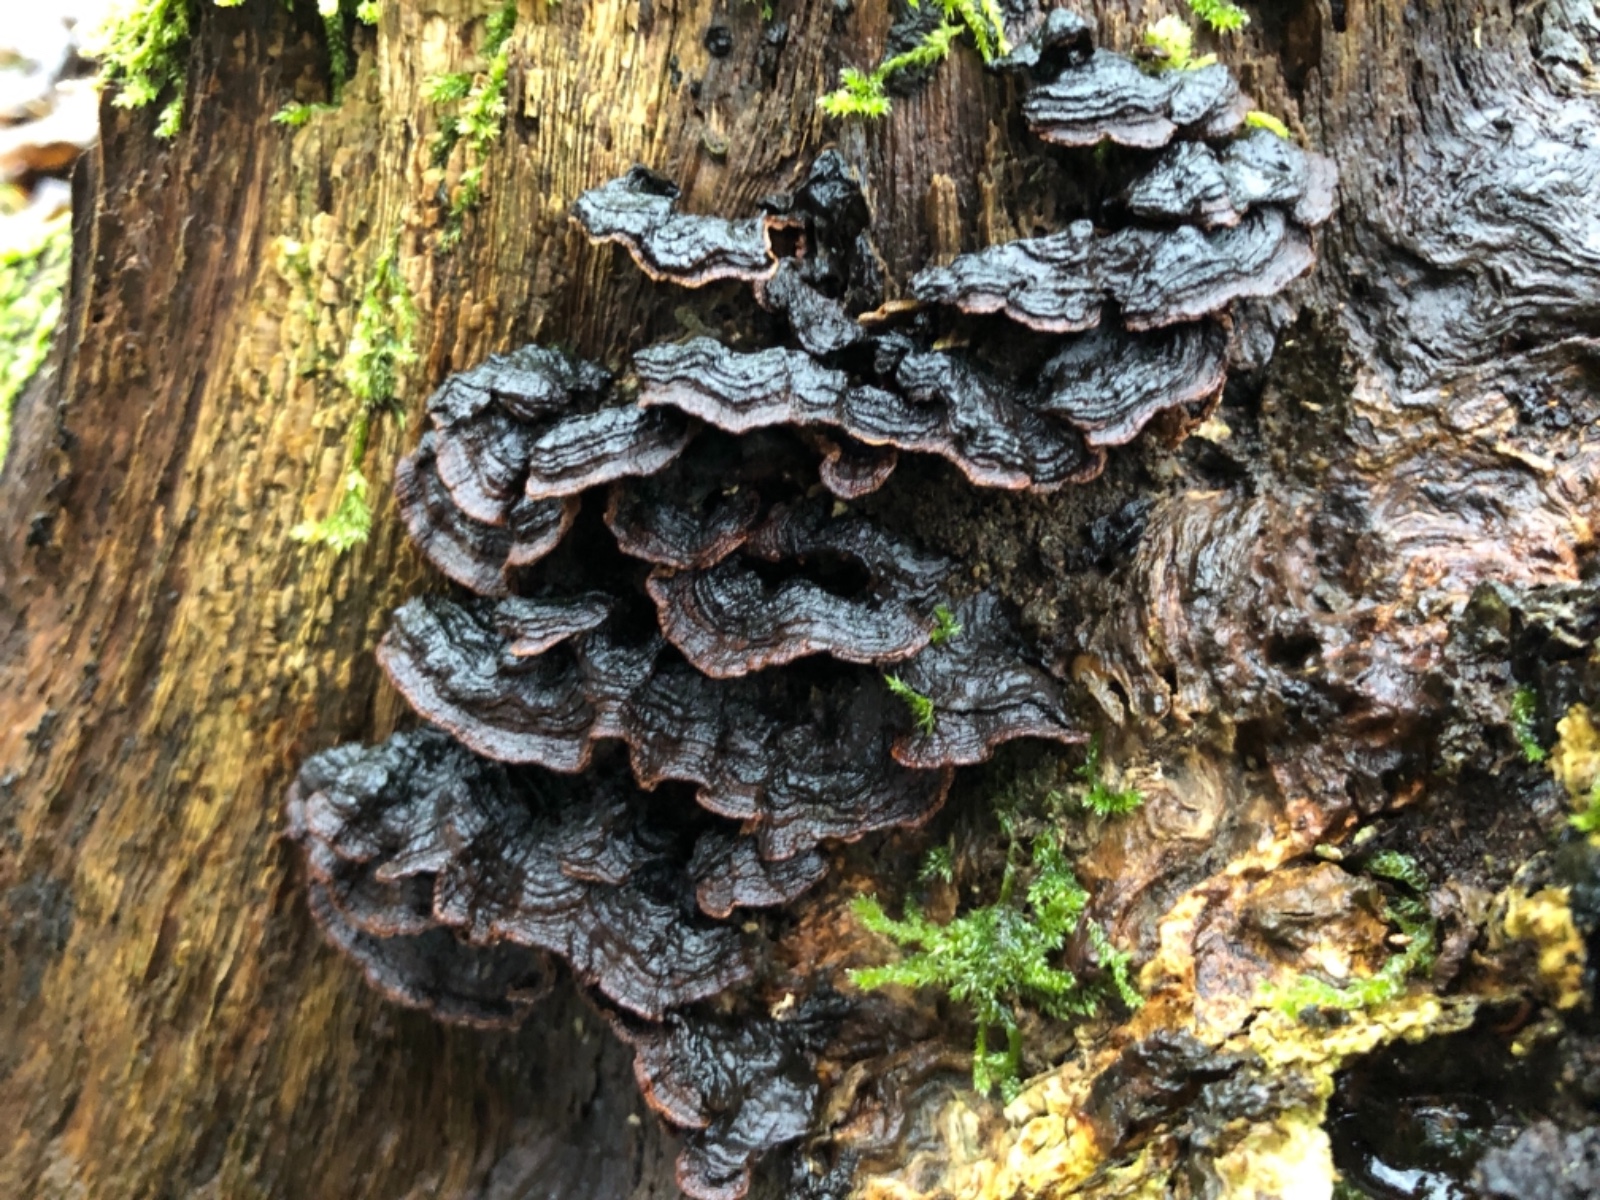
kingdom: Fungi
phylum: Basidiomycota
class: Agaricomycetes
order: Hymenochaetales
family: Hymenochaetaceae
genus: Hymenochaete
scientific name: Hymenochaete rubiginosa
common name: stiv ruslædersvamp
